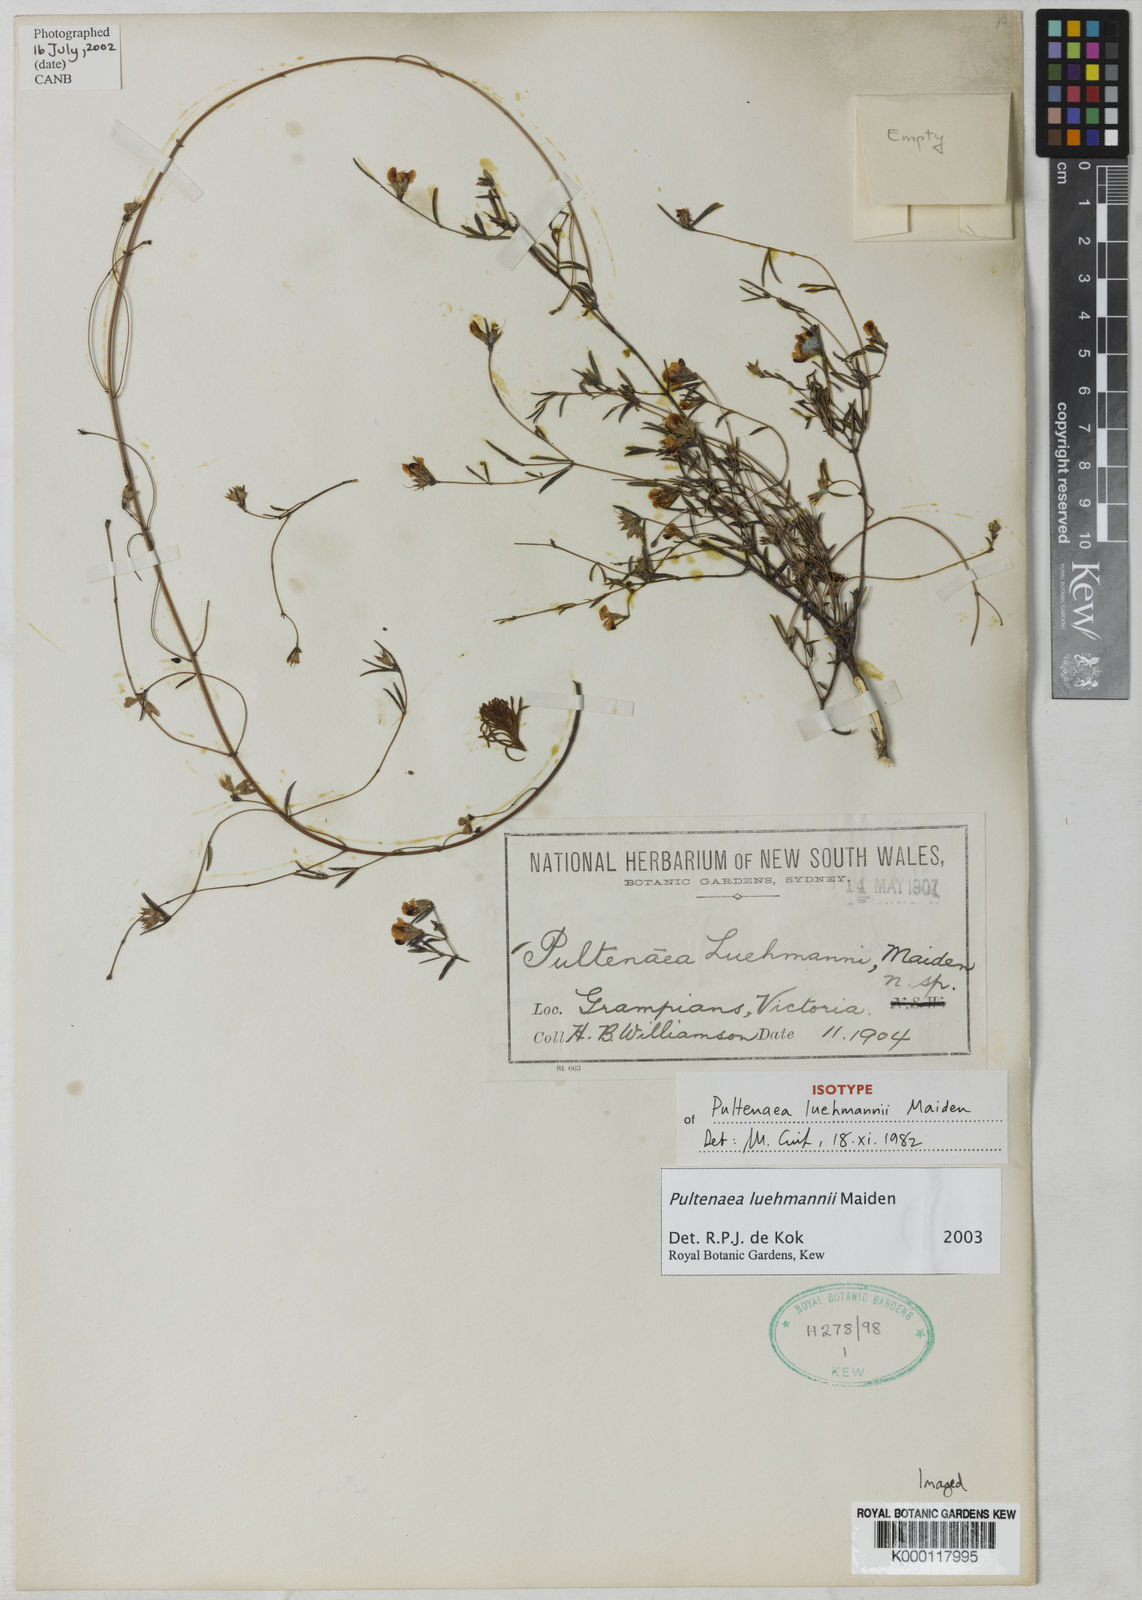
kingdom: Plantae
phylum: Tracheophyta
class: Magnoliopsida
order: Fabales
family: Fabaceae
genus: Pultenaea
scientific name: Pultenaea luehmannii
